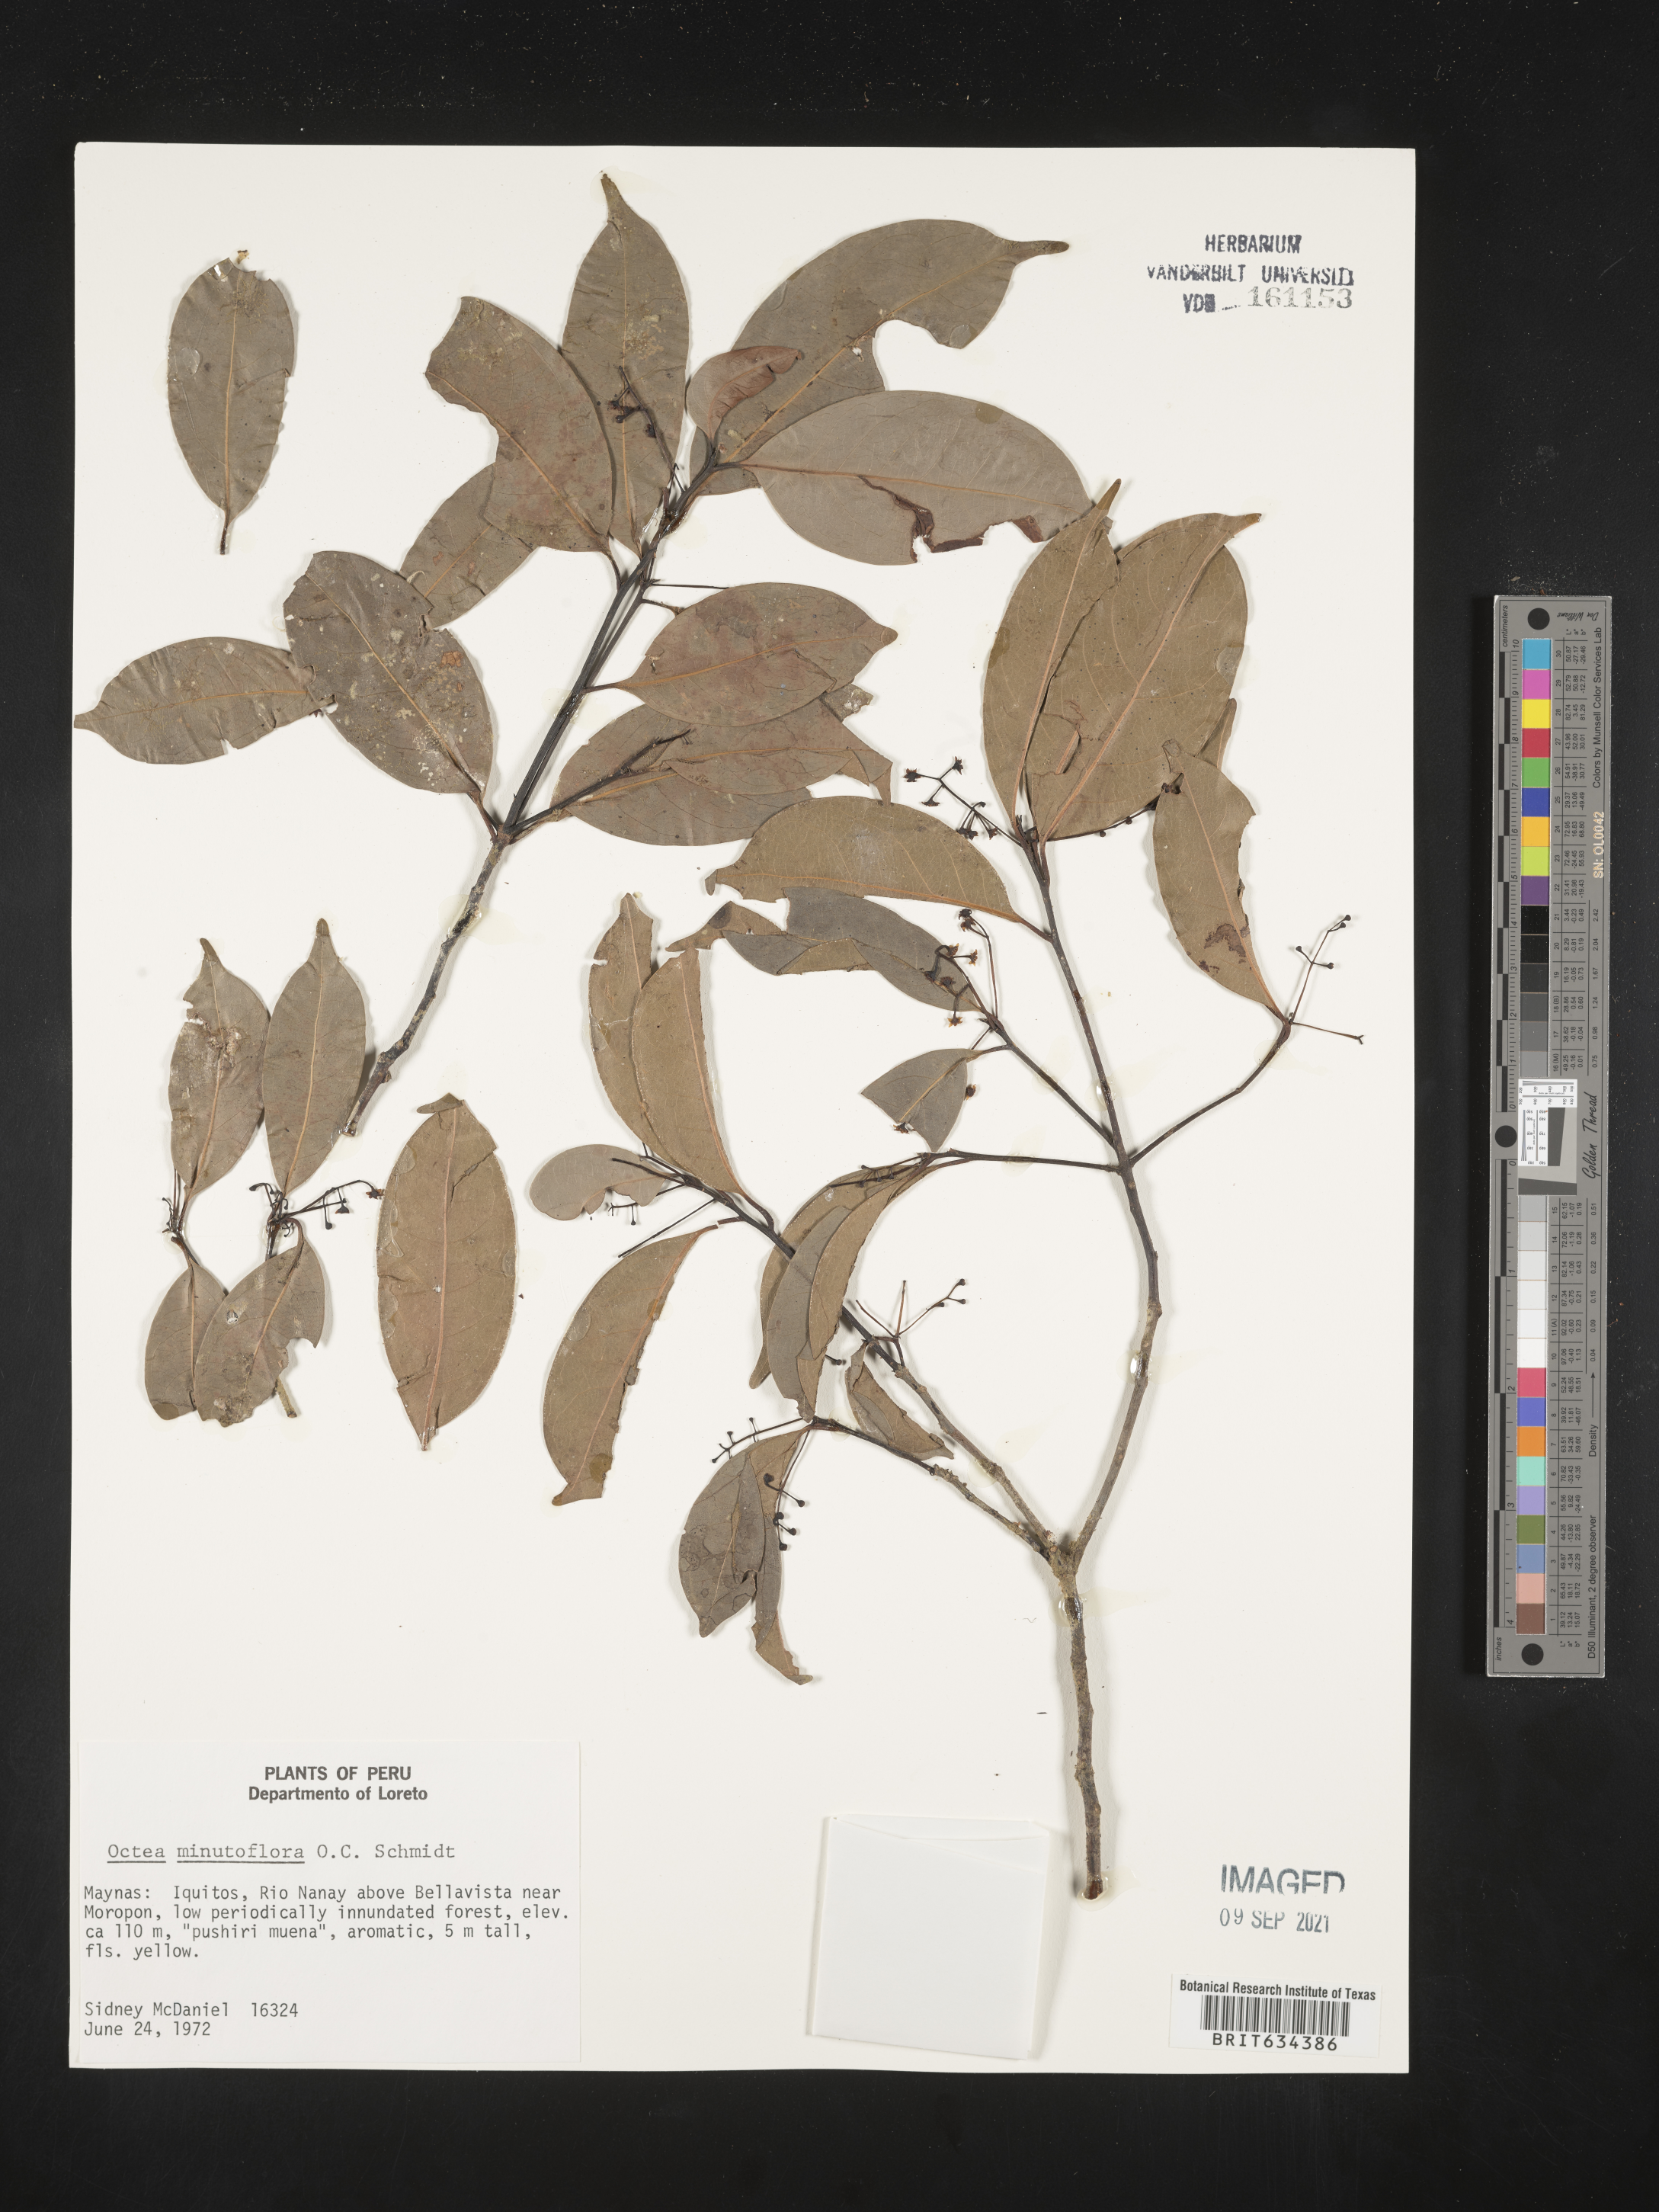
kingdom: Plantae
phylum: Tracheophyta
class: Magnoliopsida
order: Laurales
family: Lauraceae
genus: Ocotea
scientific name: Ocotea
